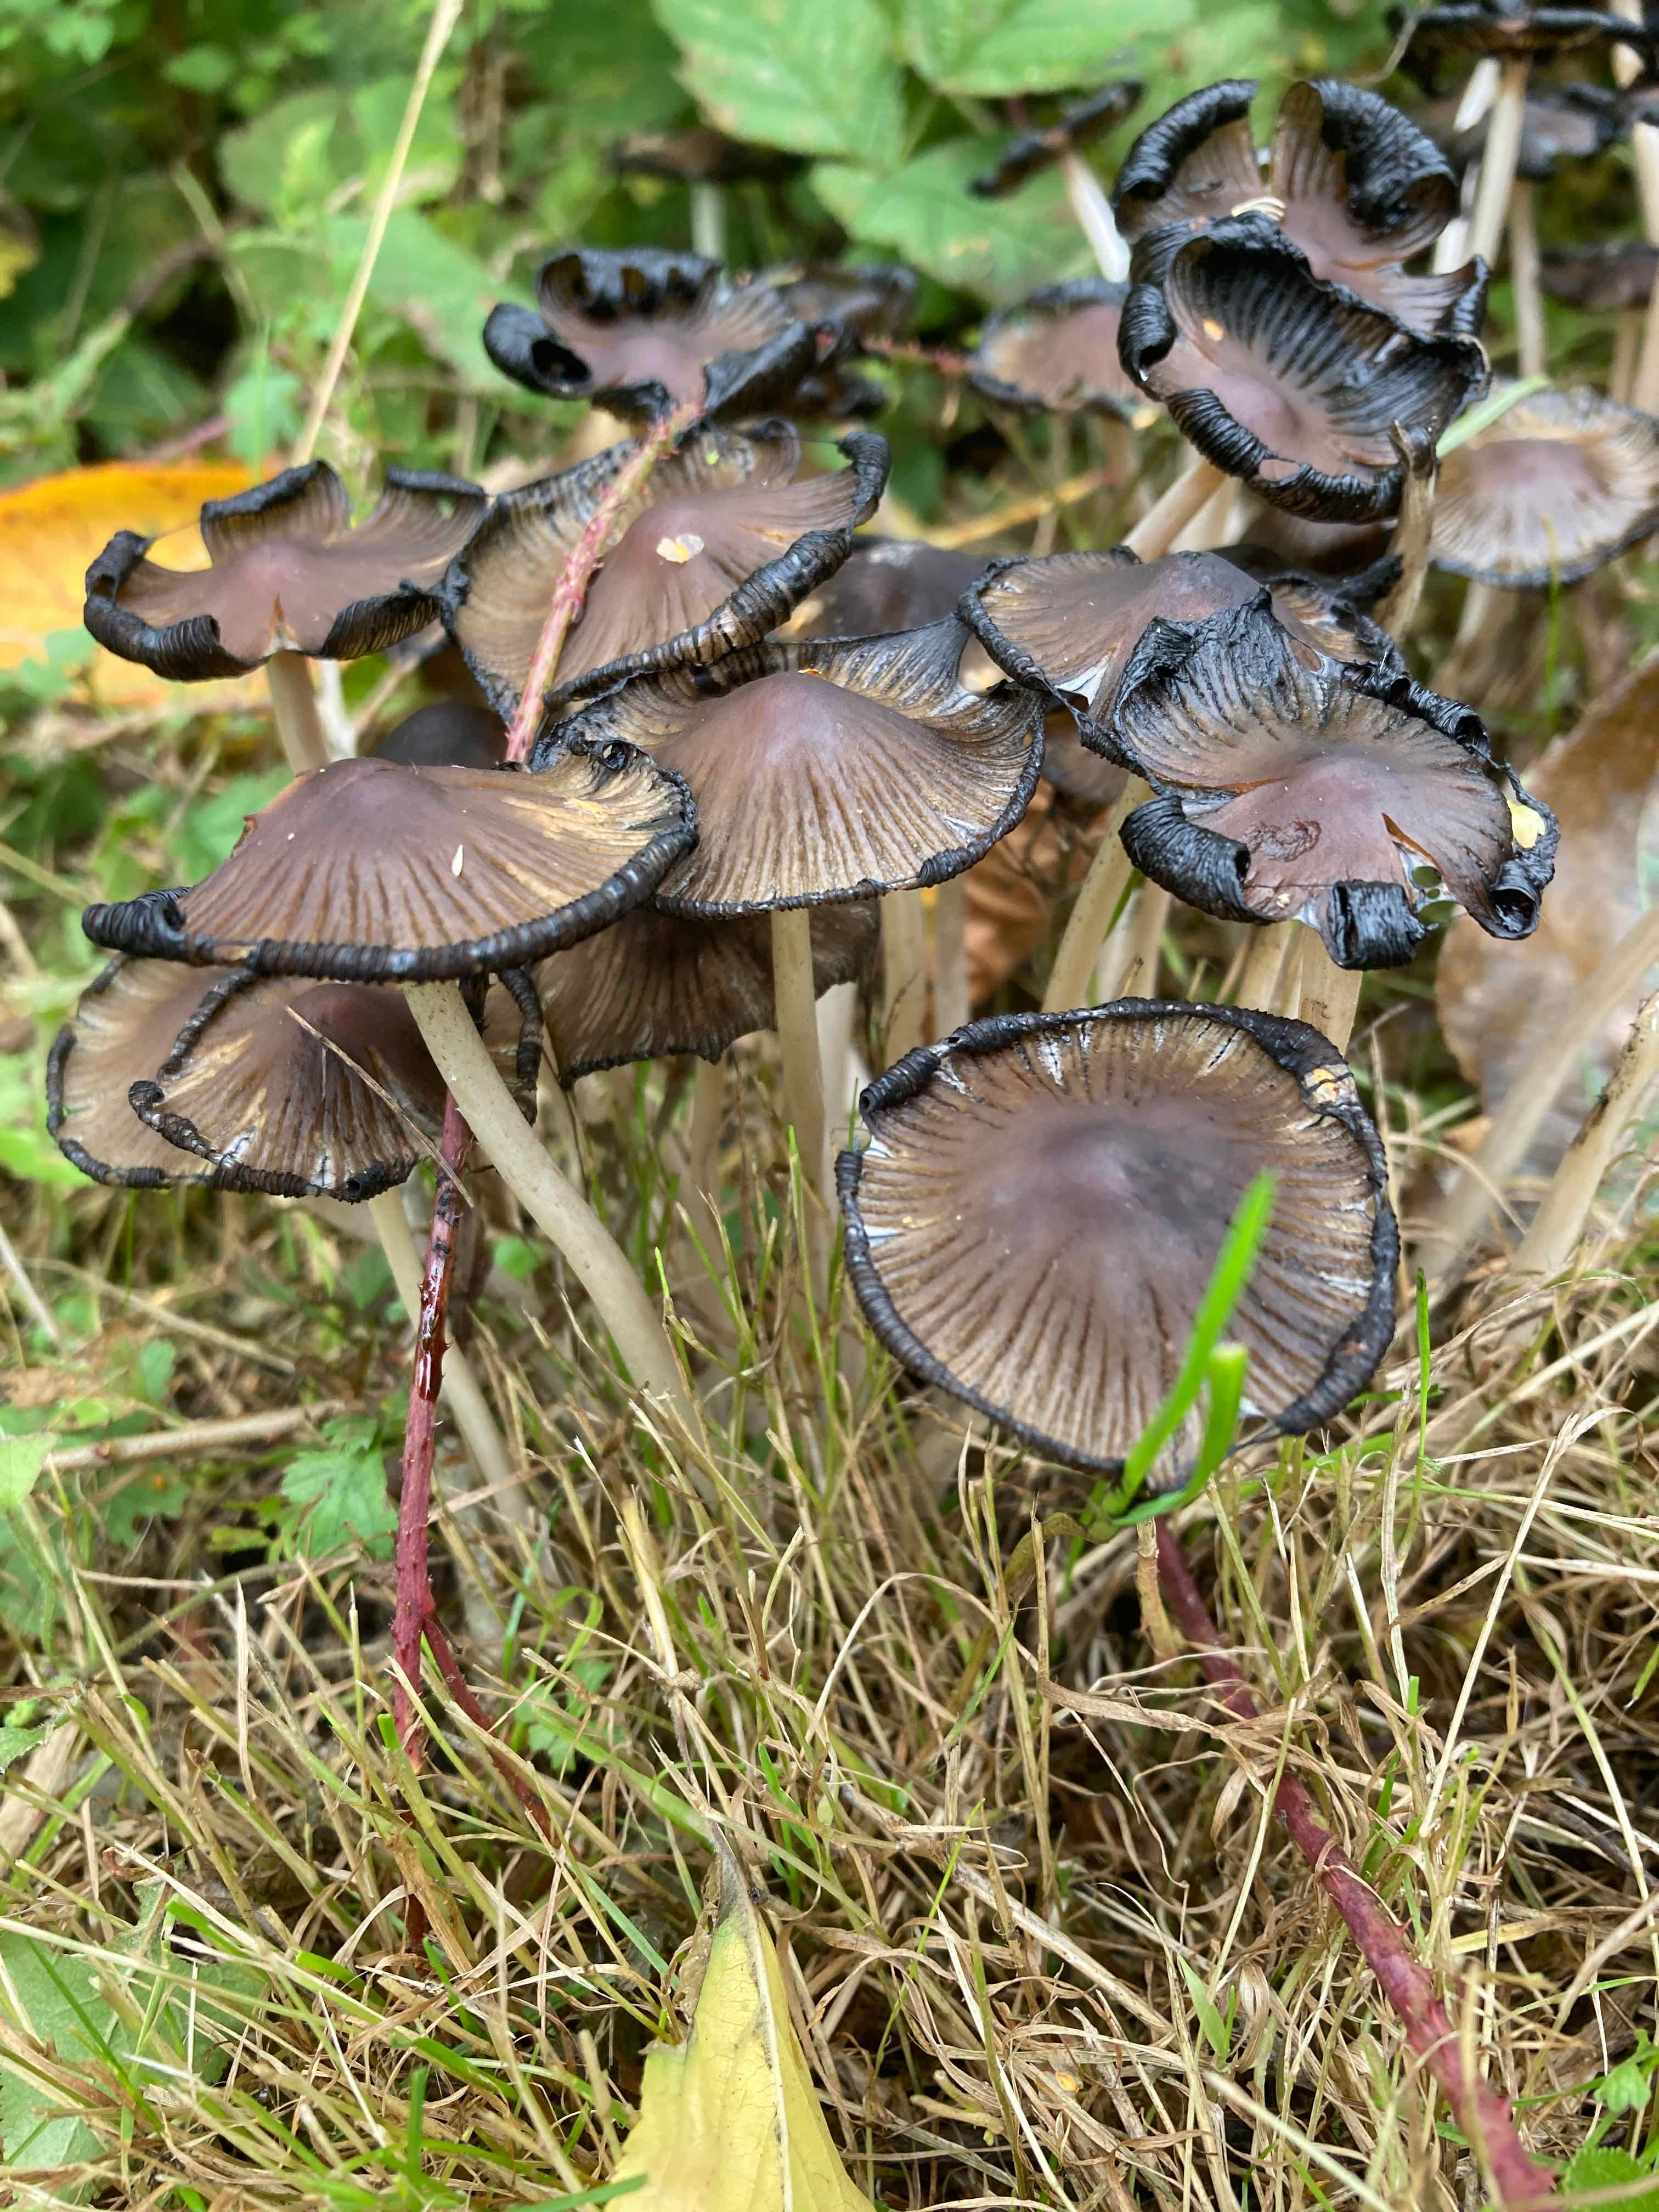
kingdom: Fungi
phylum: Basidiomycota
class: Agaricomycetes
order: Agaricales
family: Psathyrellaceae
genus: Coprinellus
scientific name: Coprinellus
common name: blækhat
